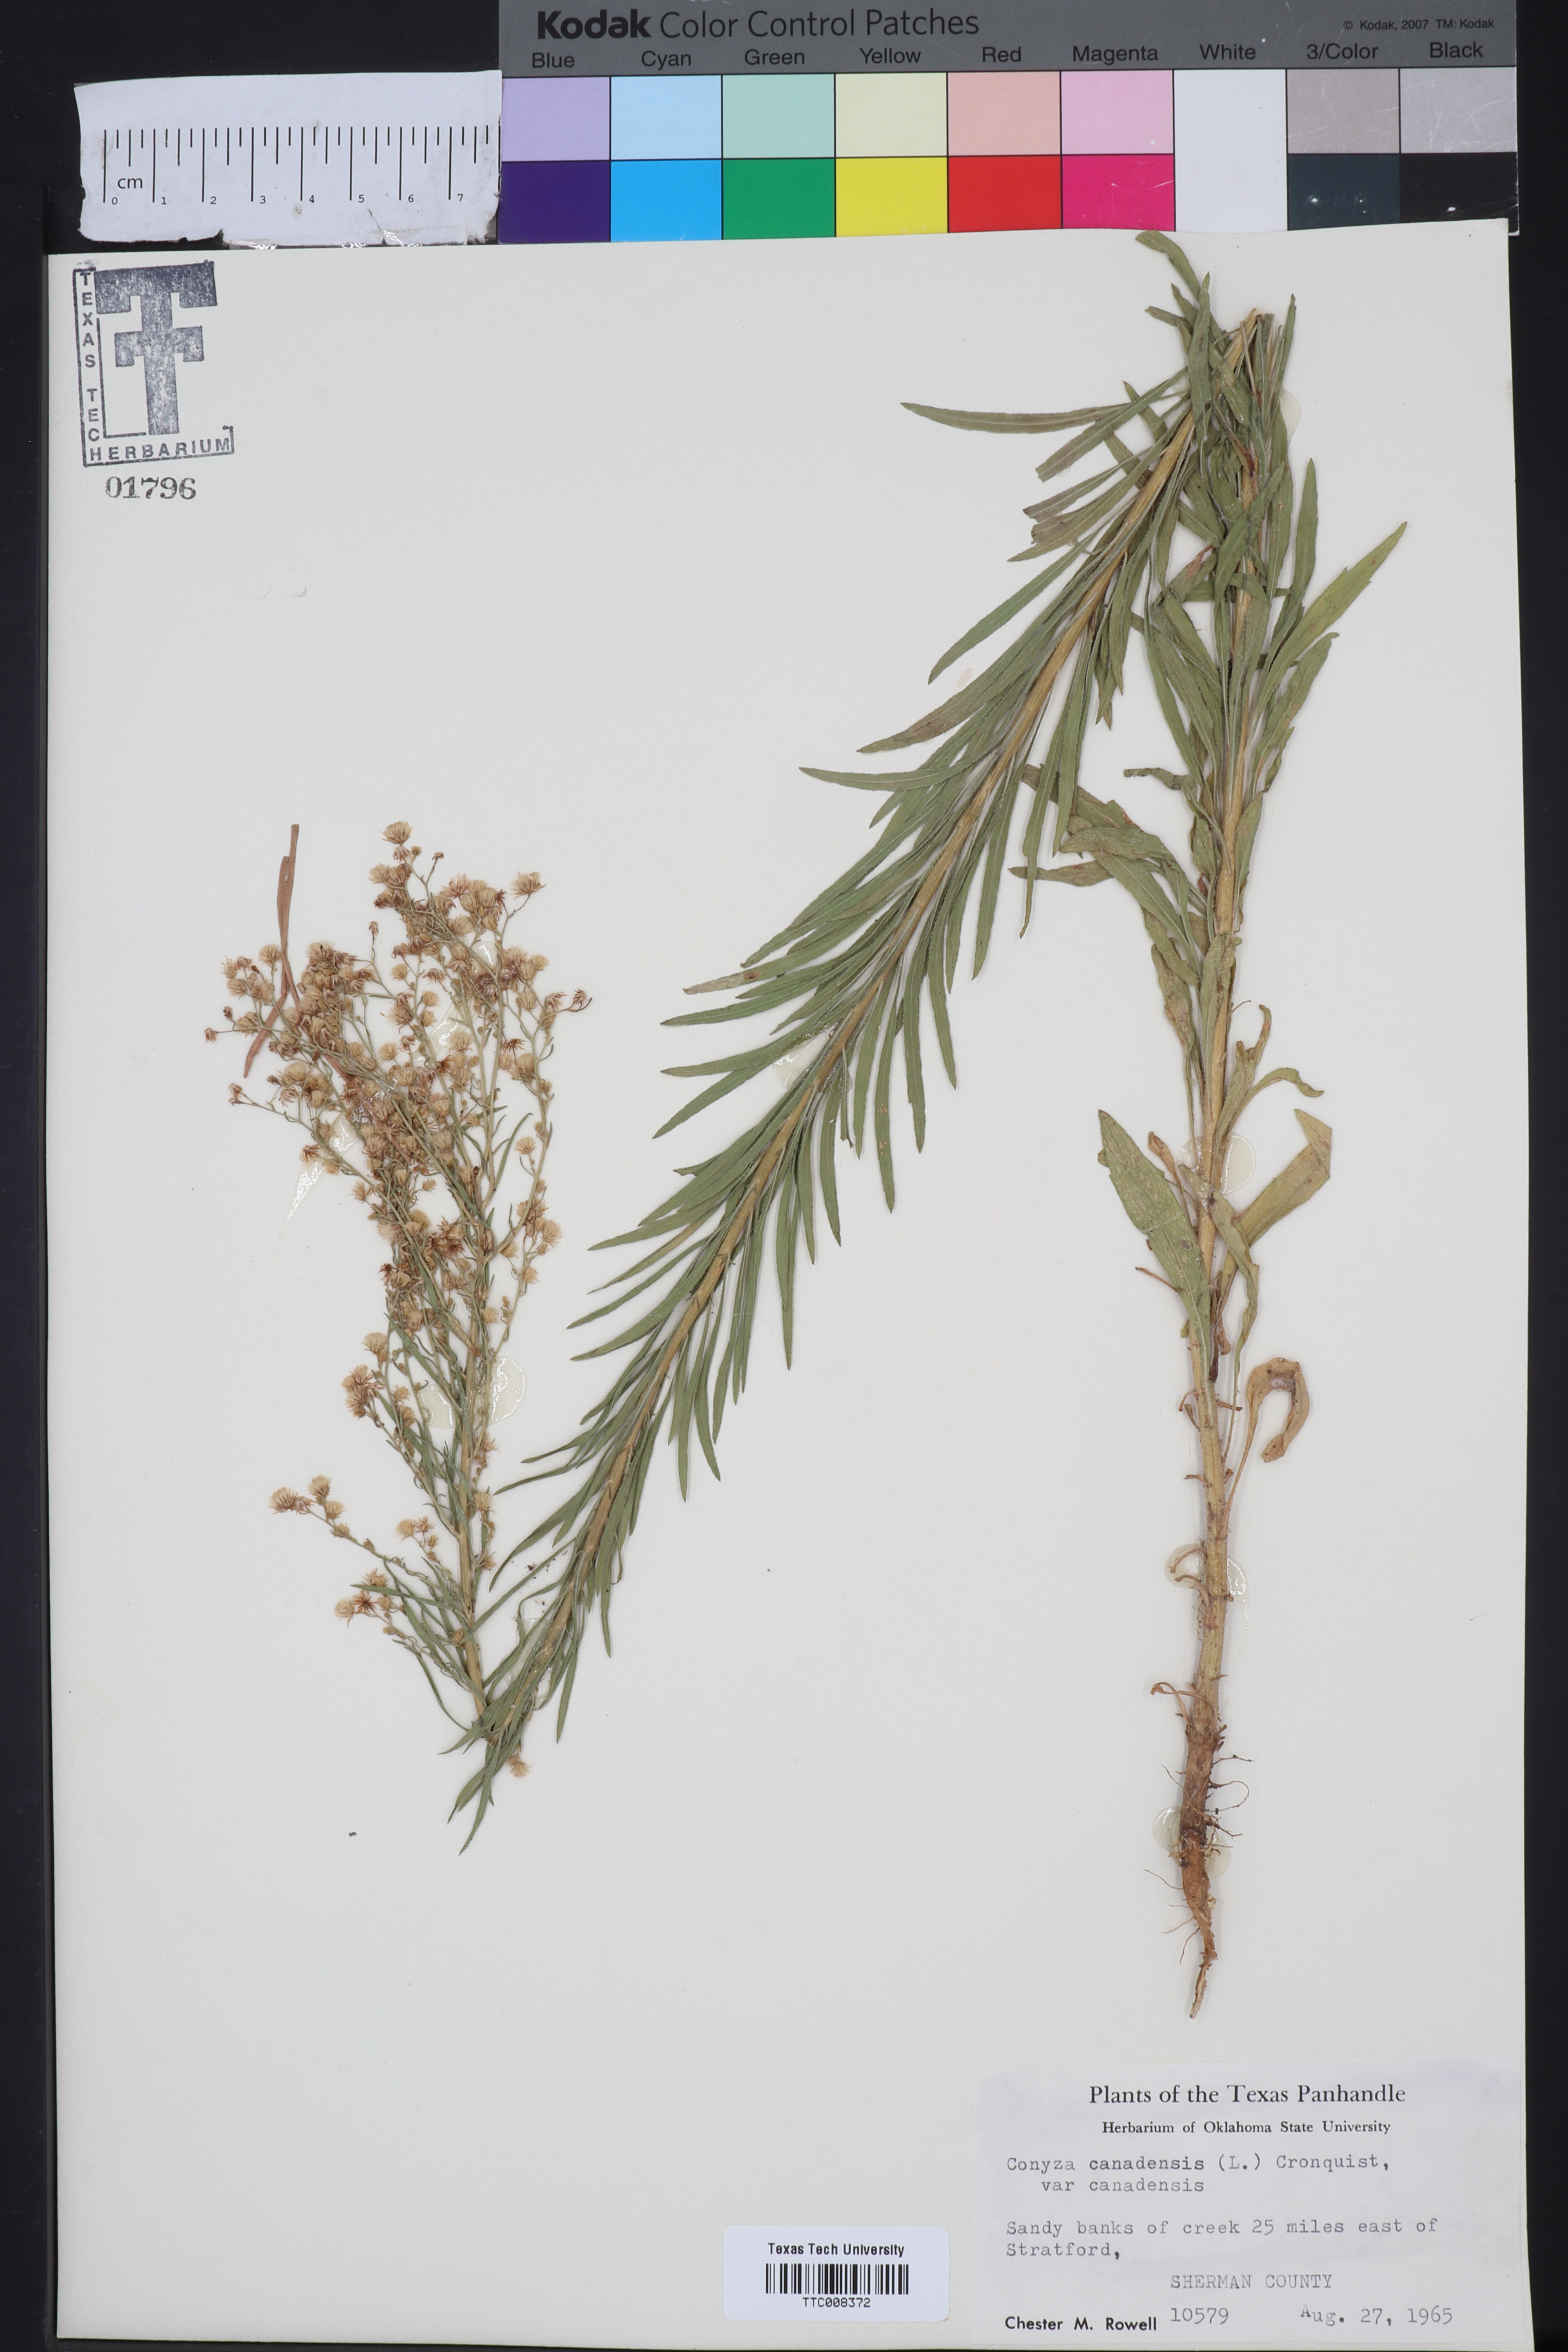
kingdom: Plantae
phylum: Tracheophyta
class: Magnoliopsida
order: Asterales
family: Asteraceae
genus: Erigeron
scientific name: Erigeron canadensis
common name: Canadian fleabane
